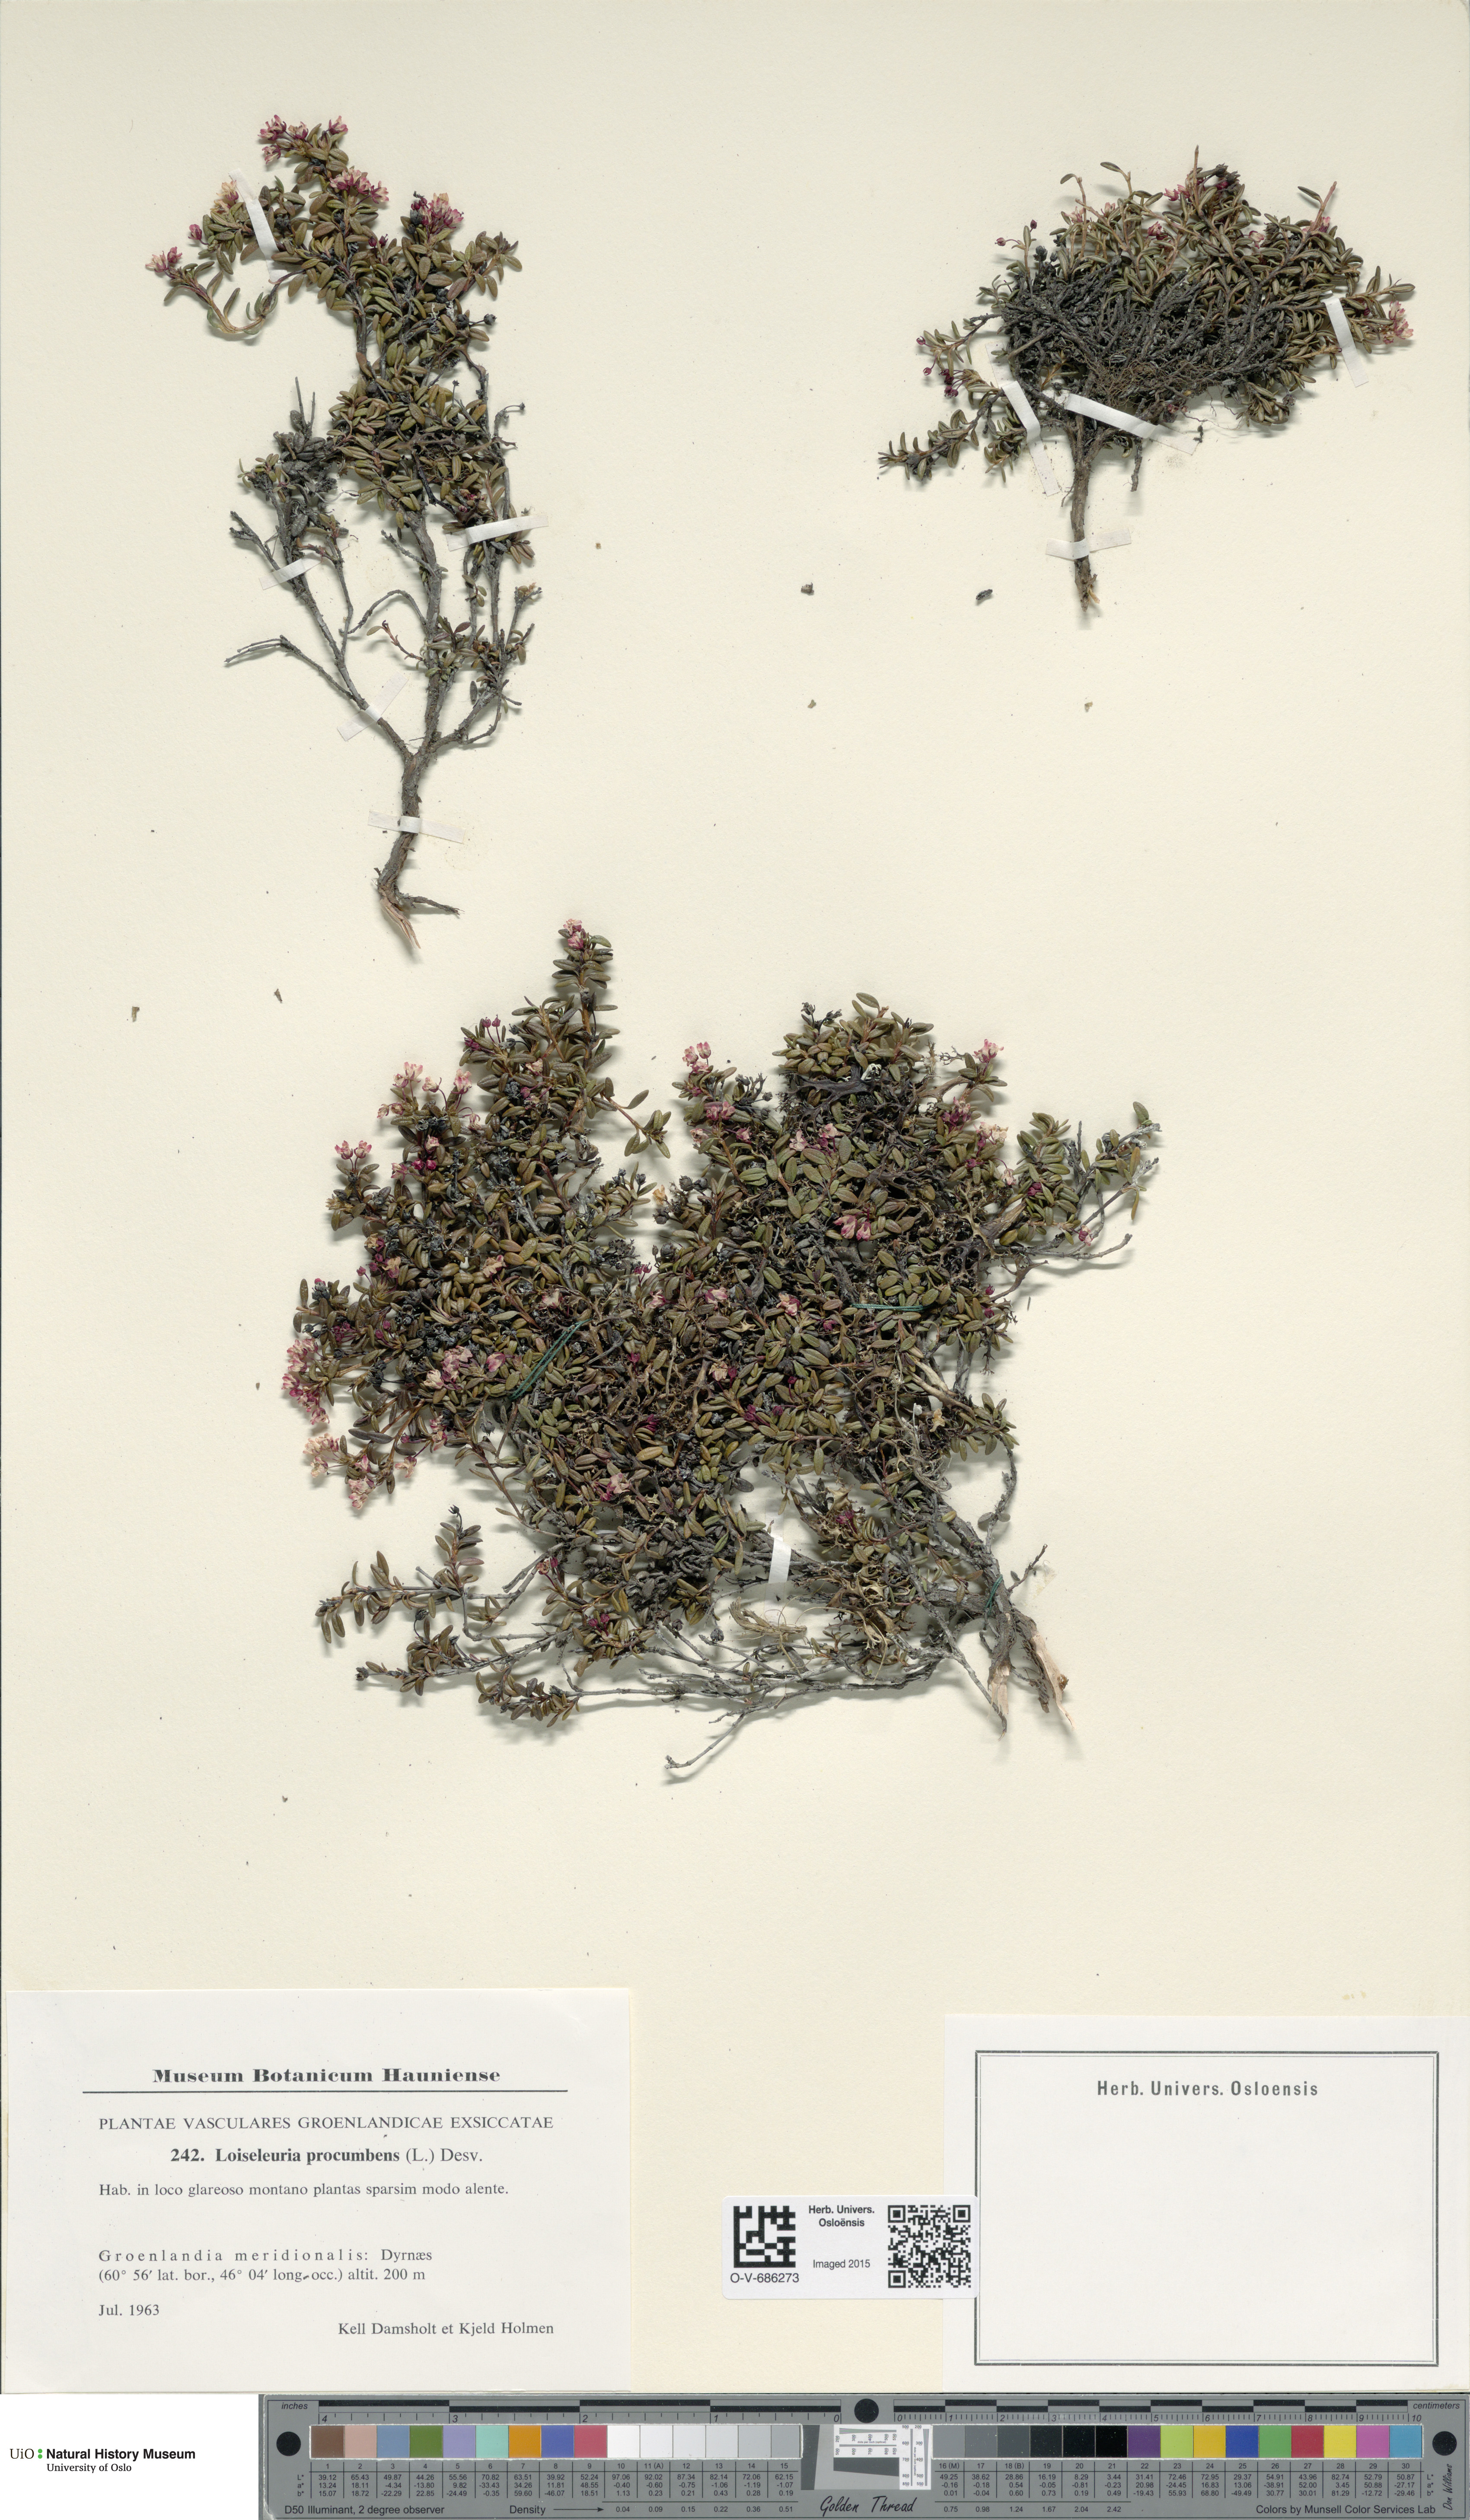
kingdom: Plantae
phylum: Tracheophyta
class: Magnoliopsida
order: Ericales
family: Ericaceae
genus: Kalmia
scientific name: Kalmia procumbens
